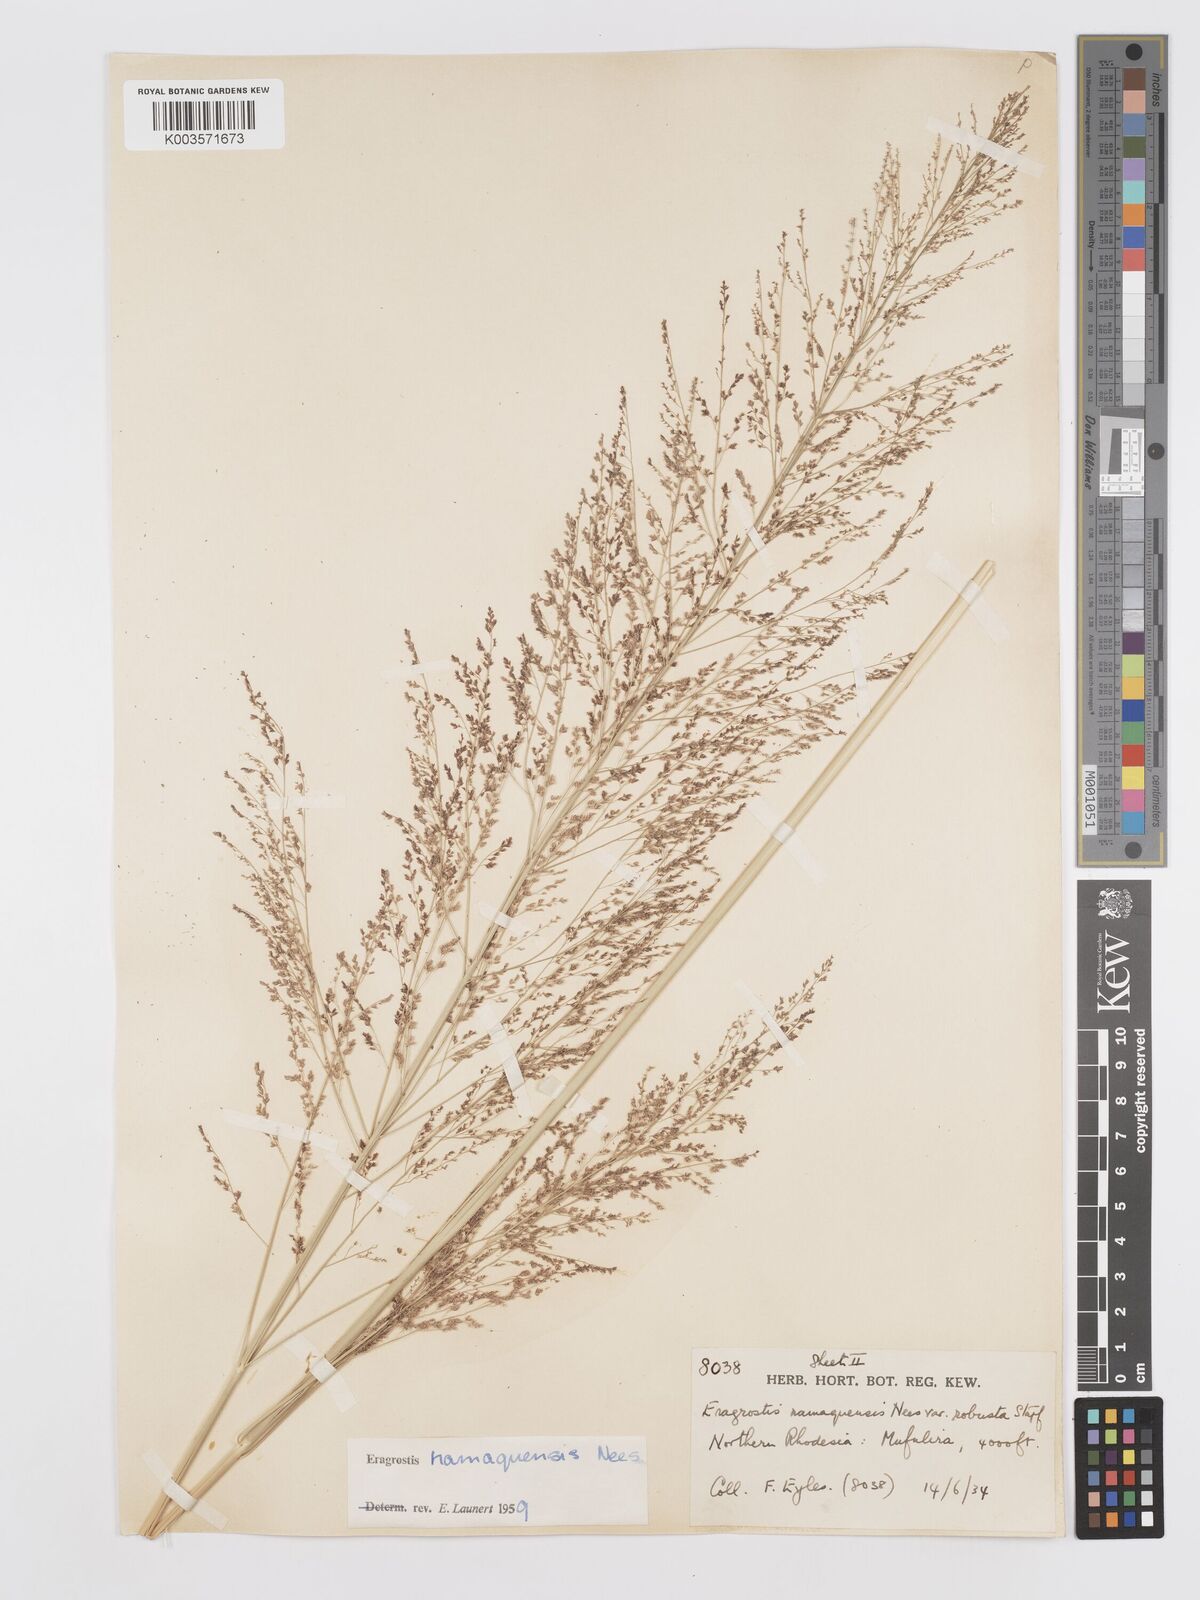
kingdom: Plantae
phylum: Tracheophyta
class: Liliopsida
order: Poales
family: Poaceae
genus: Eragrostis
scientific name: Eragrostis japonica
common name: Pond lovegrass
